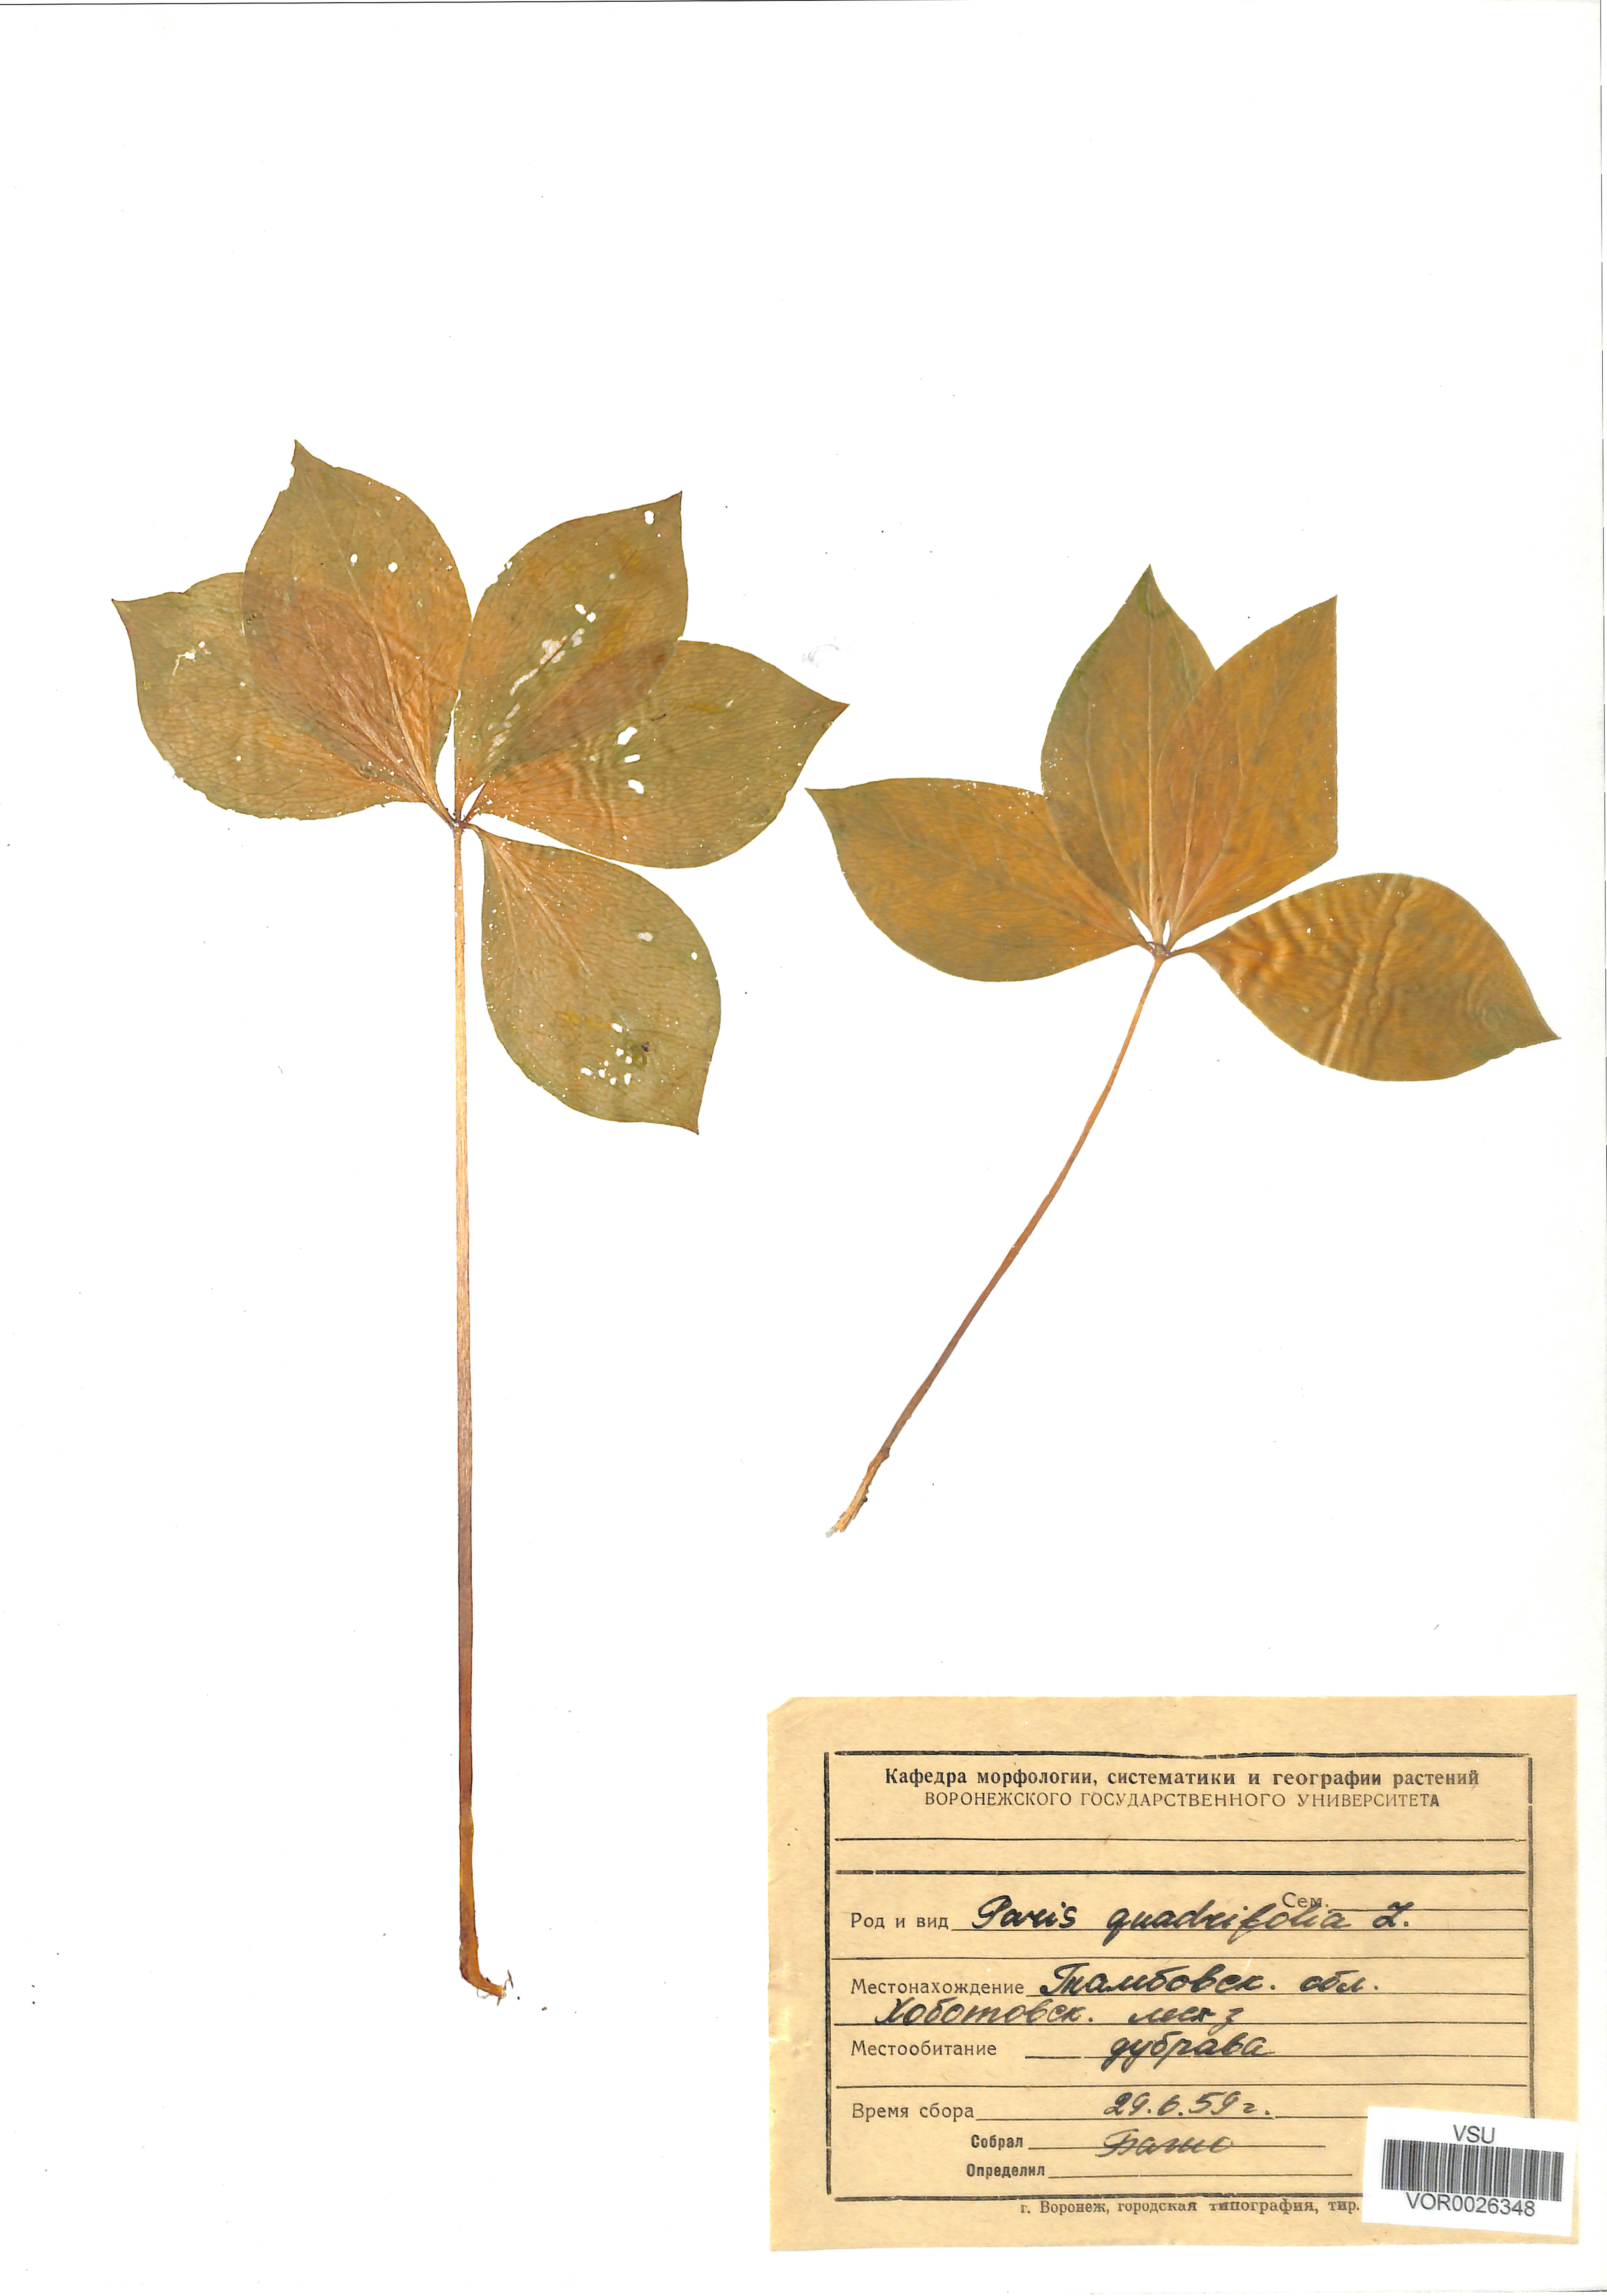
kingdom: Plantae
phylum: Tracheophyta
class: Liliopsida
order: Liliales
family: Melanthiaceae
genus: Paris
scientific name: Paris quadrifolia
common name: Herb-paris
